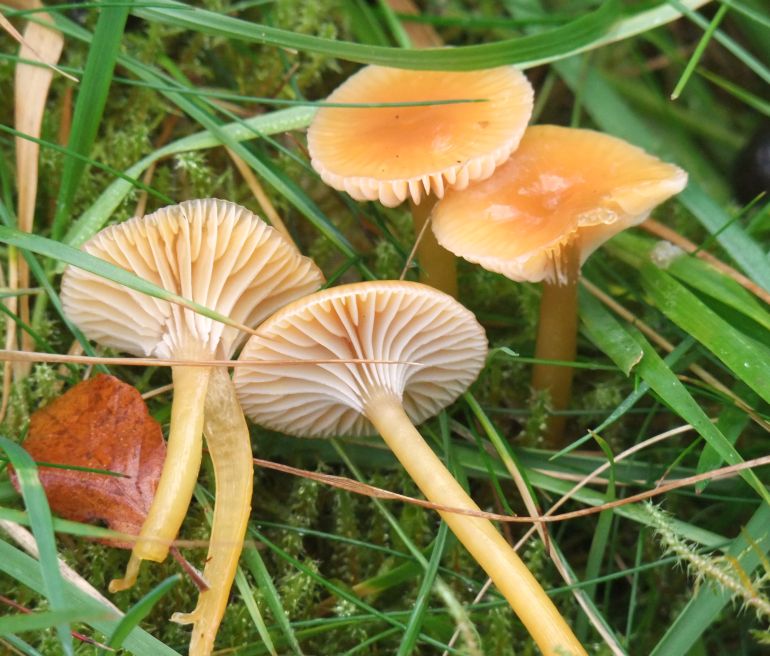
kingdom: Fungi
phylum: Basidiomycota
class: Agaricomycetes
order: Agaricales
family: Hygrophoraceae
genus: Gliophorus
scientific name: Gliophorus laetus
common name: brusk-vokshat
